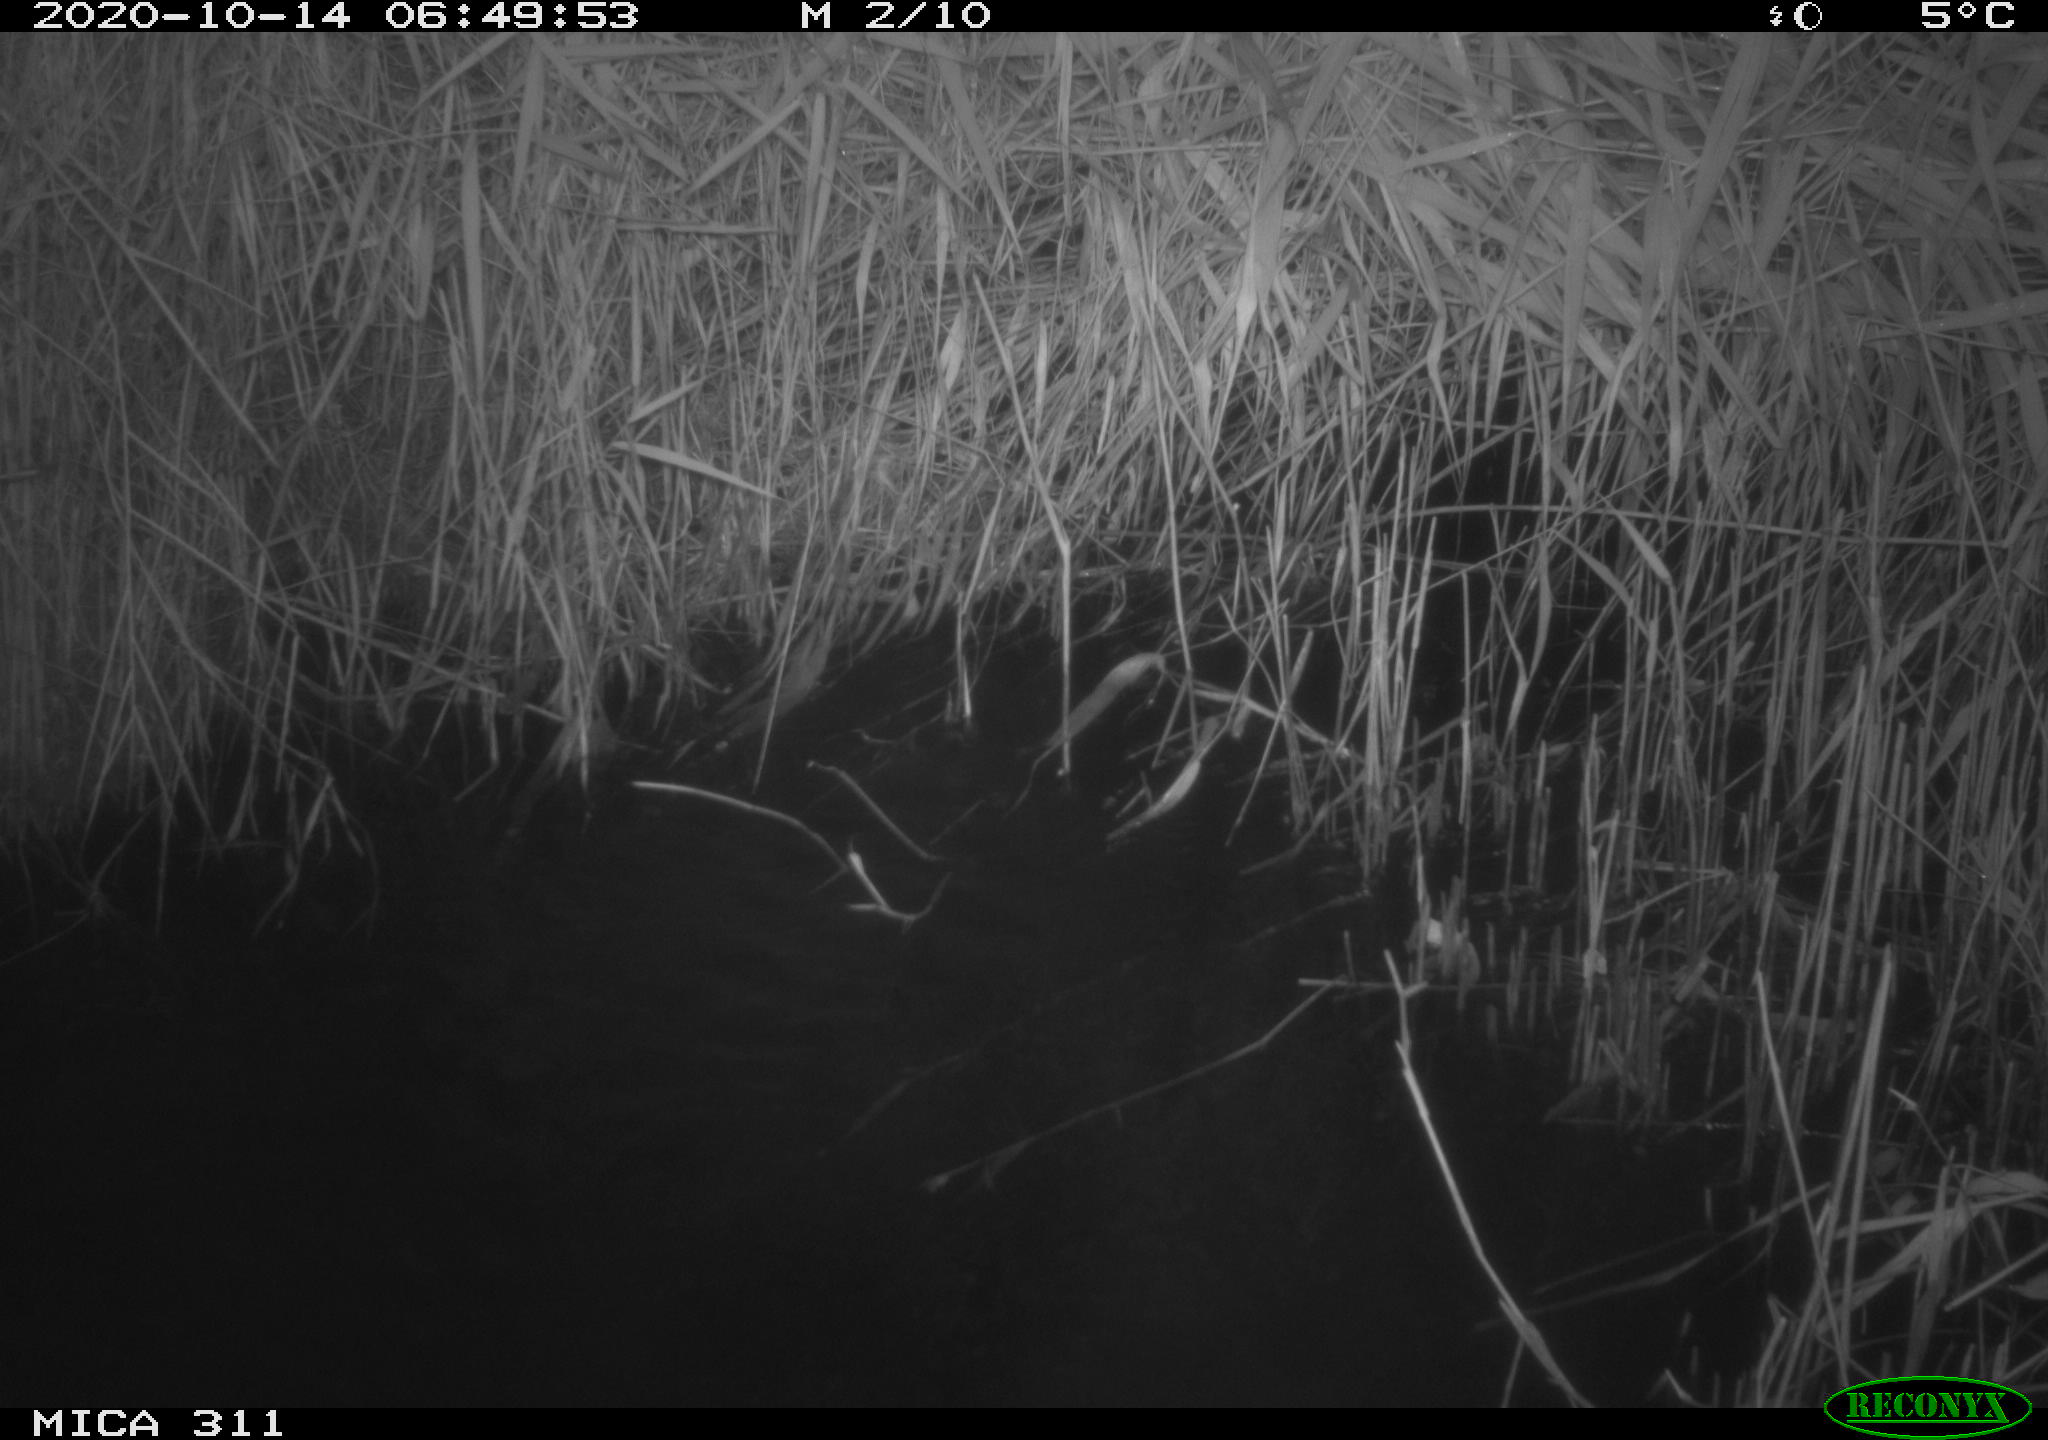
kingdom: Animalia
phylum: Chordata
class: Mammalia
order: Rodentia
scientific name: Rodentia
